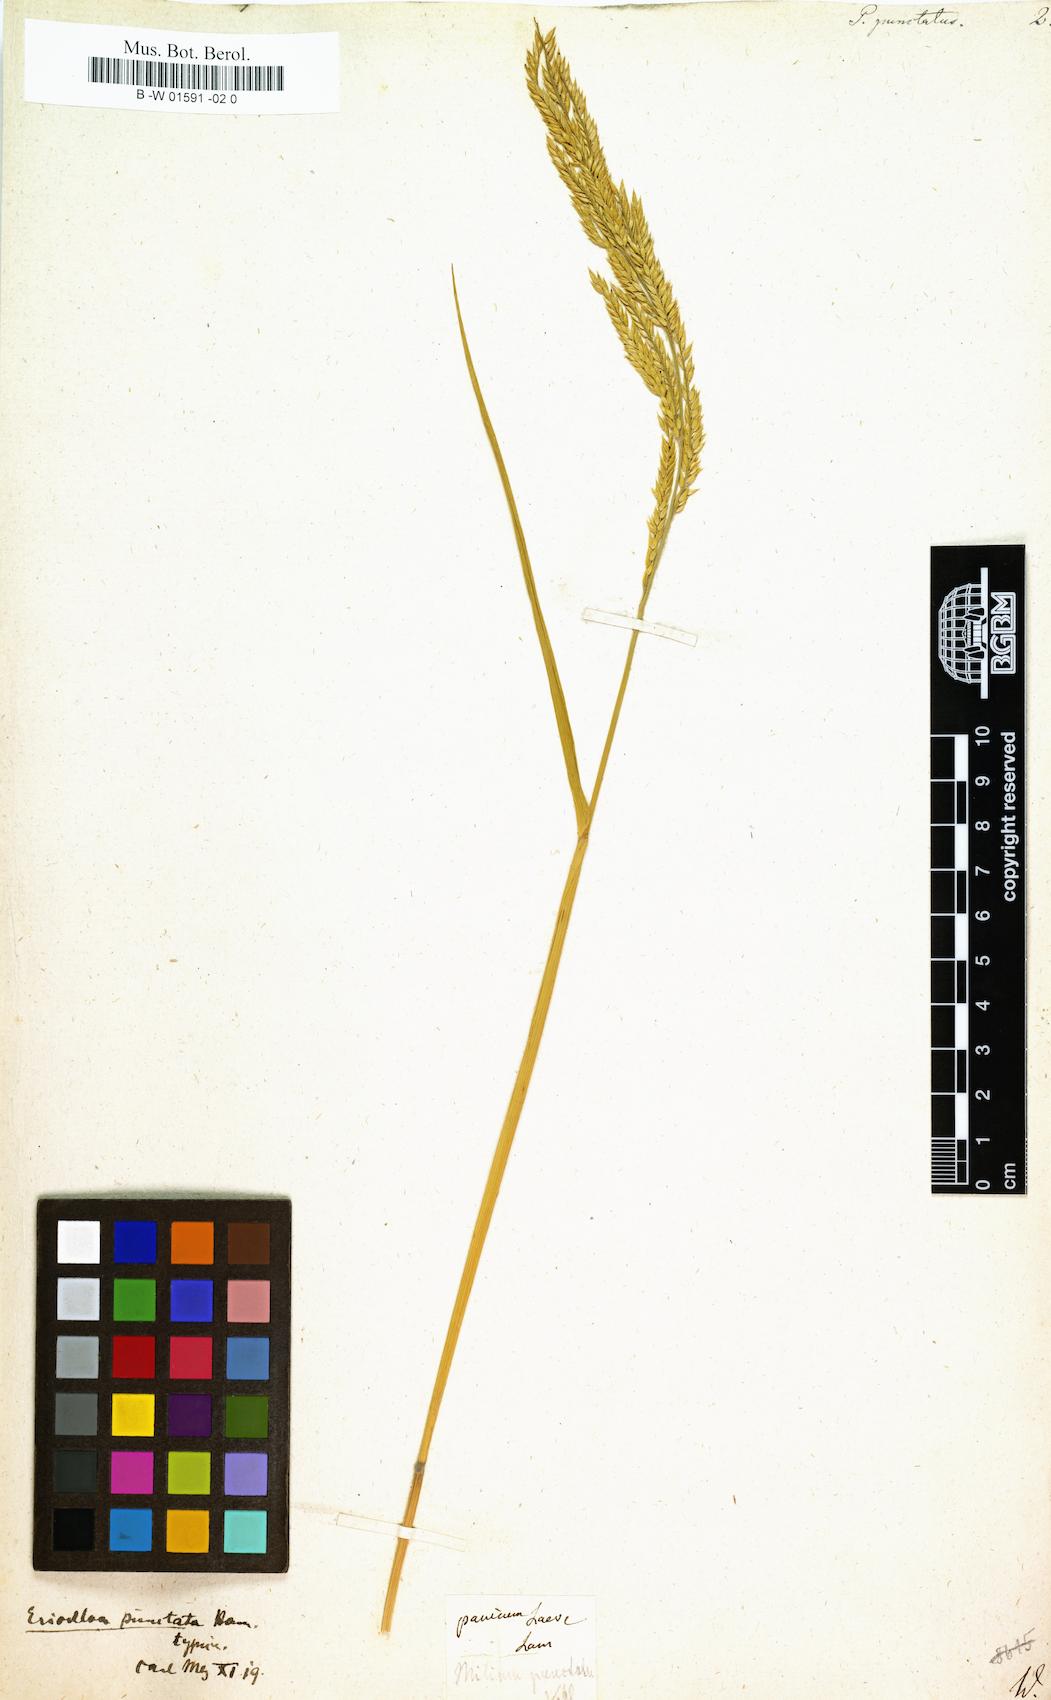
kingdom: Plantae
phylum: Tracheophyta
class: Liliopsida
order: Poales
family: Poaceae
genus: Eriochloa
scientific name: Eriochloa punctata
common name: Louisiana cupgrass
